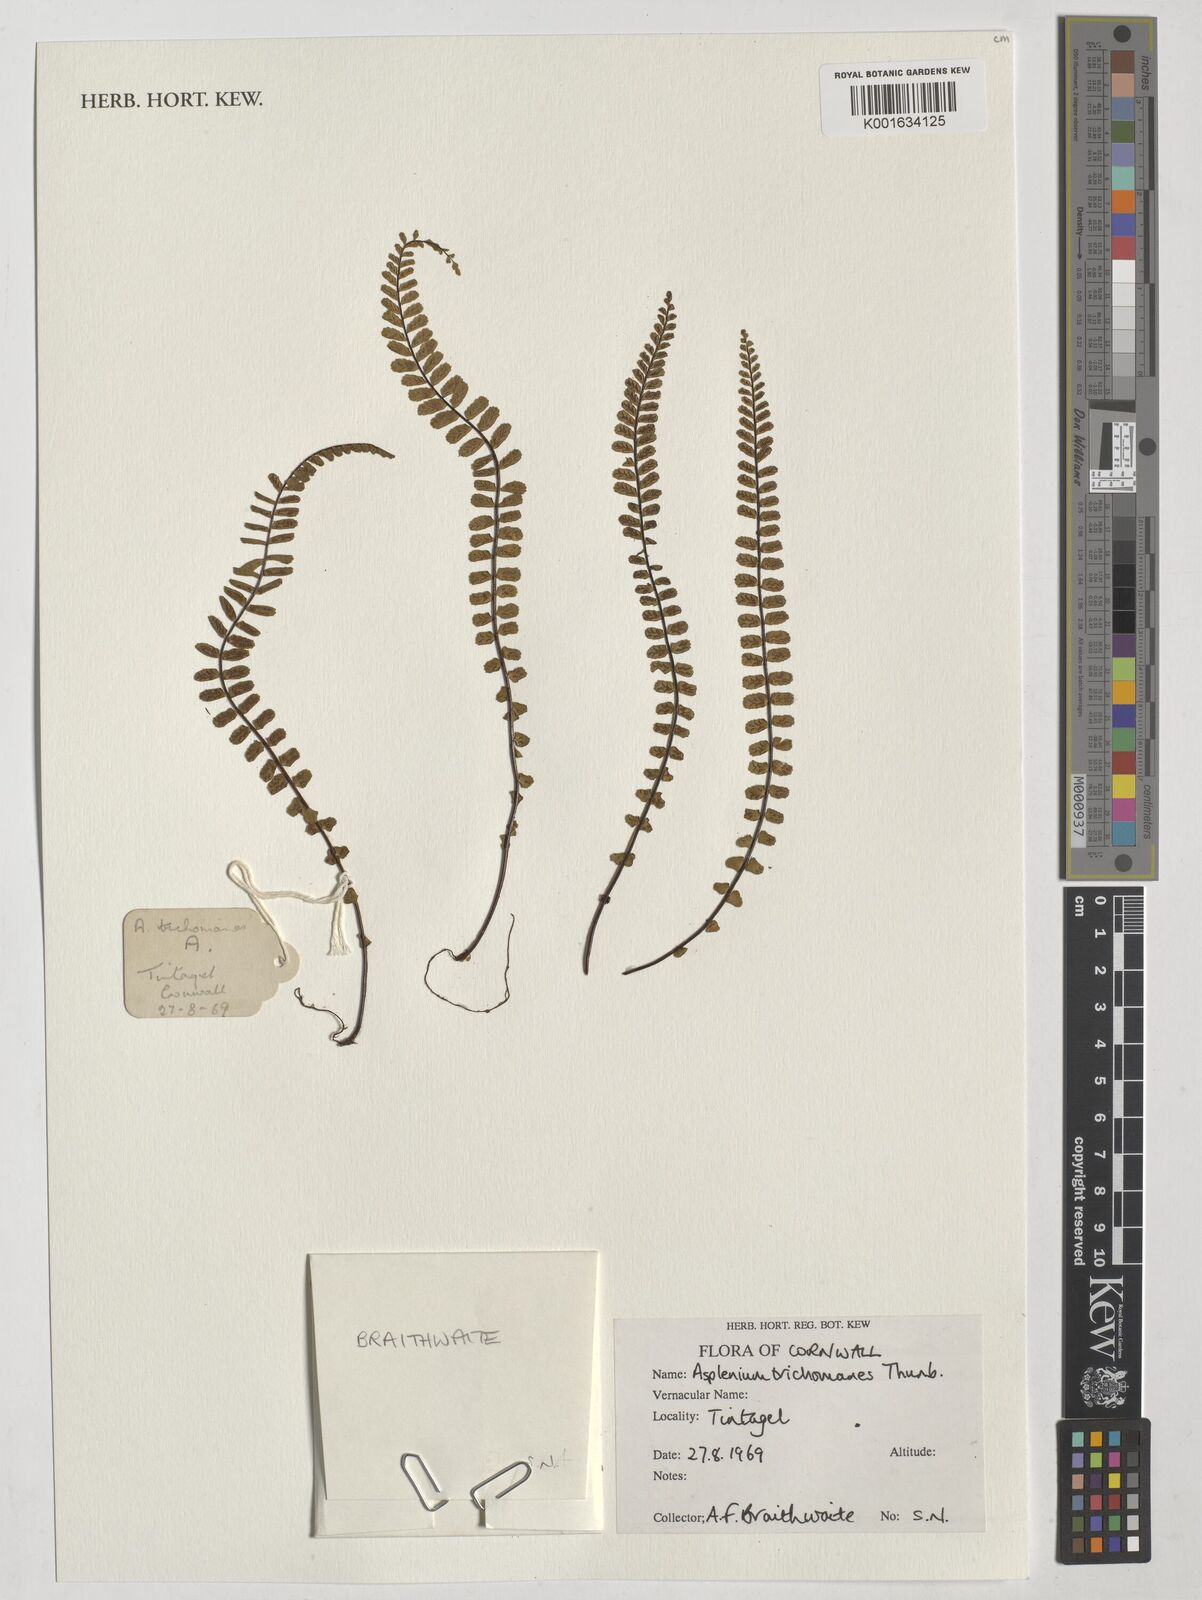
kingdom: Plantae
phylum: Tracheophyta
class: Polypodiopsida
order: Polypodiales
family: Aspleniaceae
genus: Asplenium
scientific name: Asplenium incisum
